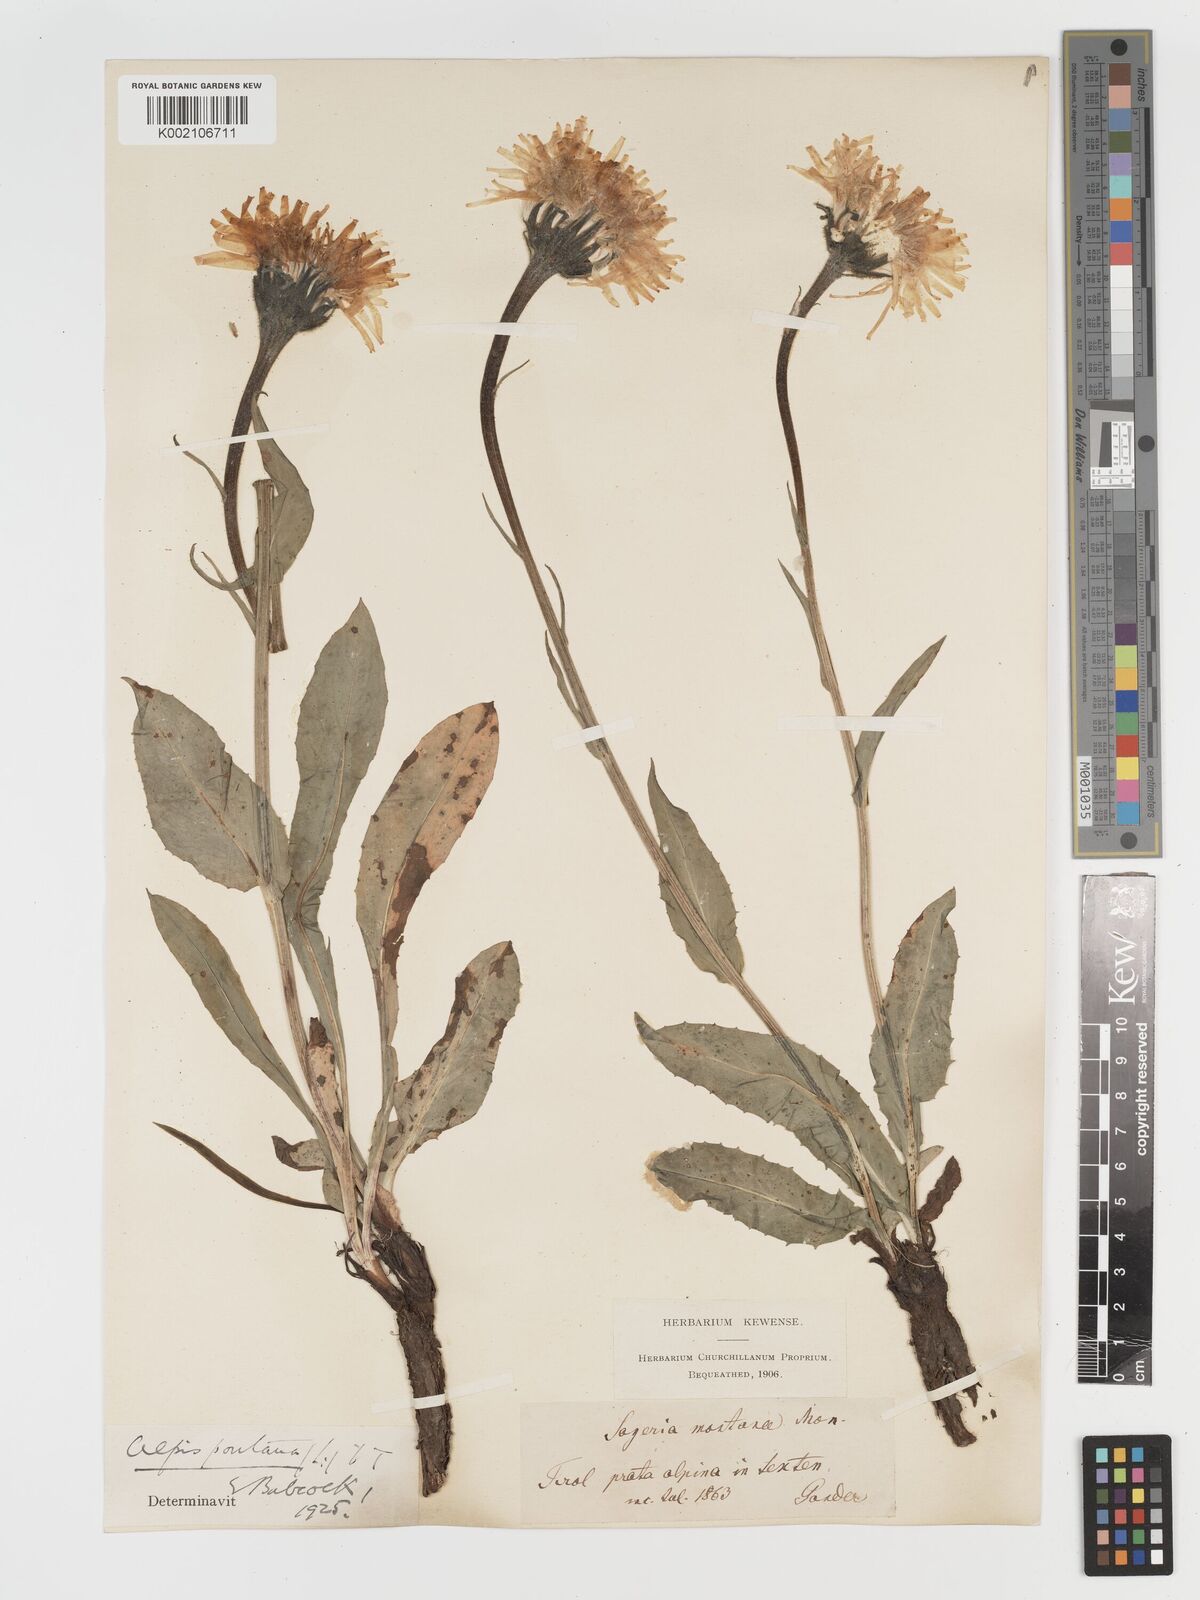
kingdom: Plantae
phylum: Tracheophyta
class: Magnoliopsida
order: Asterales
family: Asteraceae
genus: Crepis
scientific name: Crepis pontana
